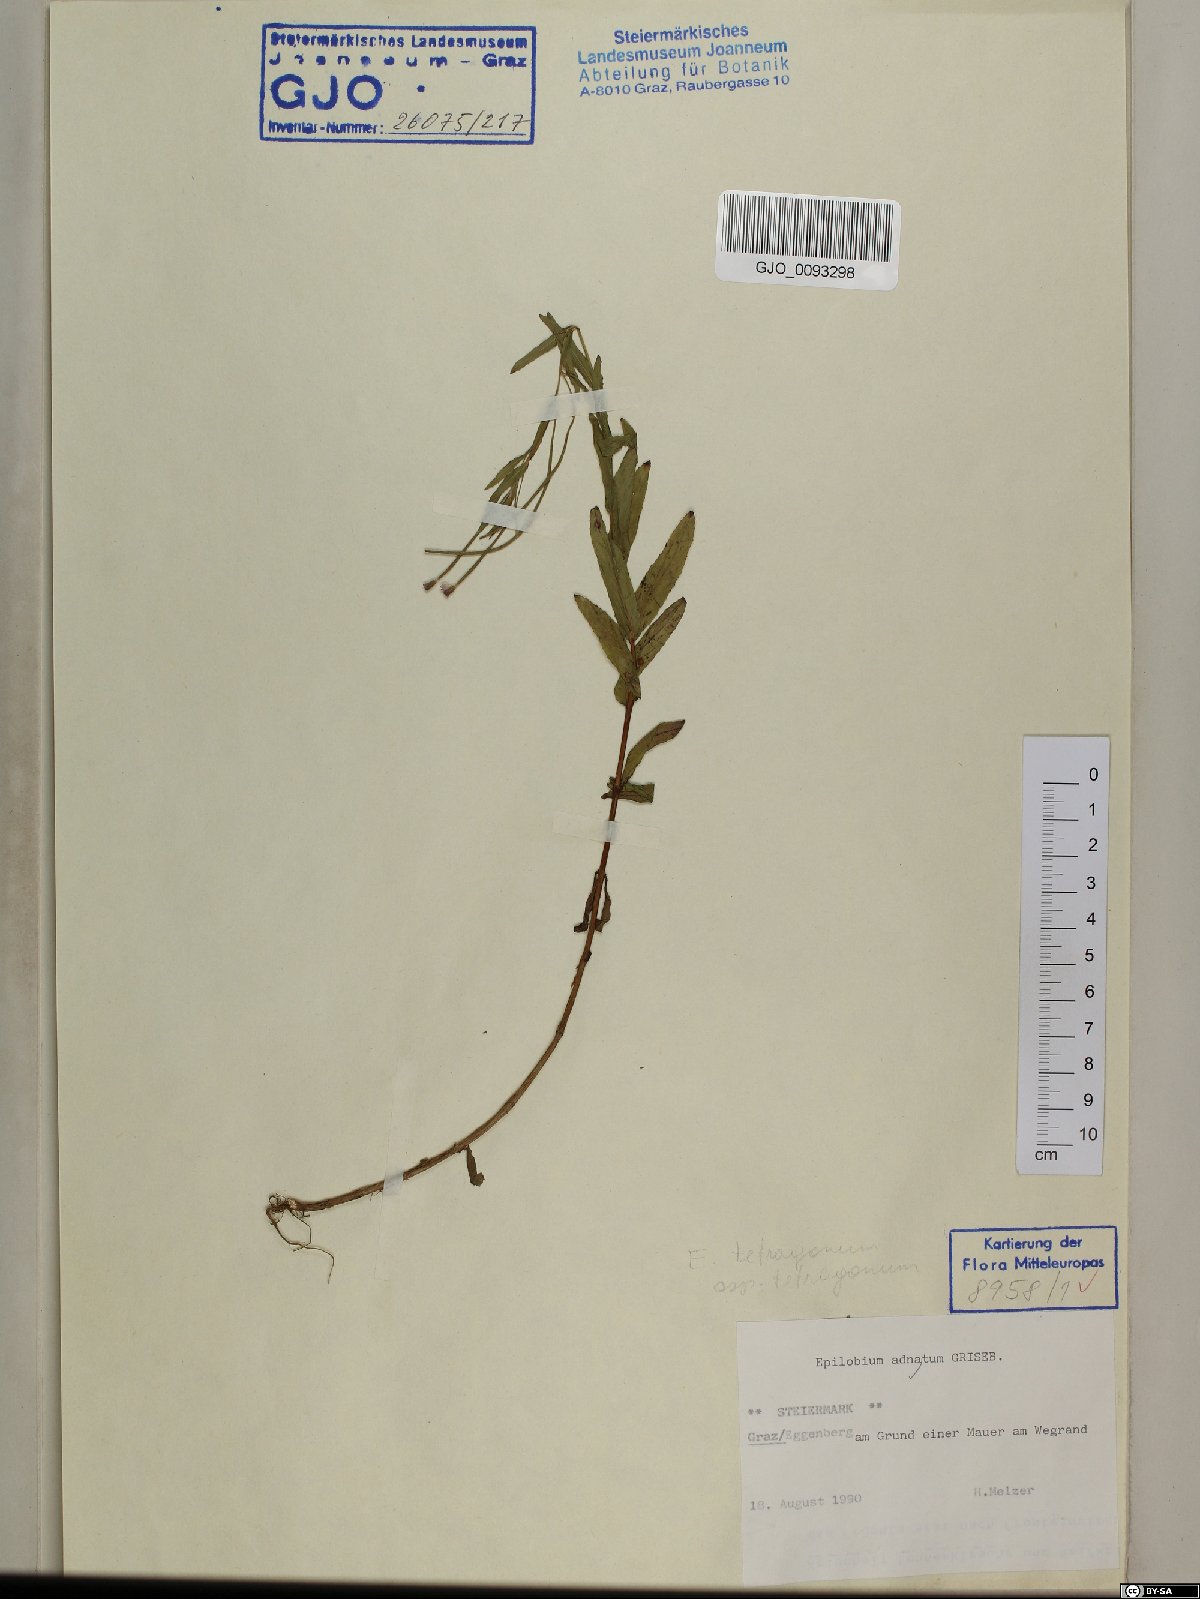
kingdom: Plantae
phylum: Tracheophyta
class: Magnoliopsida
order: Myrtales
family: Onagraceae
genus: Epilobium
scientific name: Epilobium tetragonum
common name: Square-stemmed willowherb
